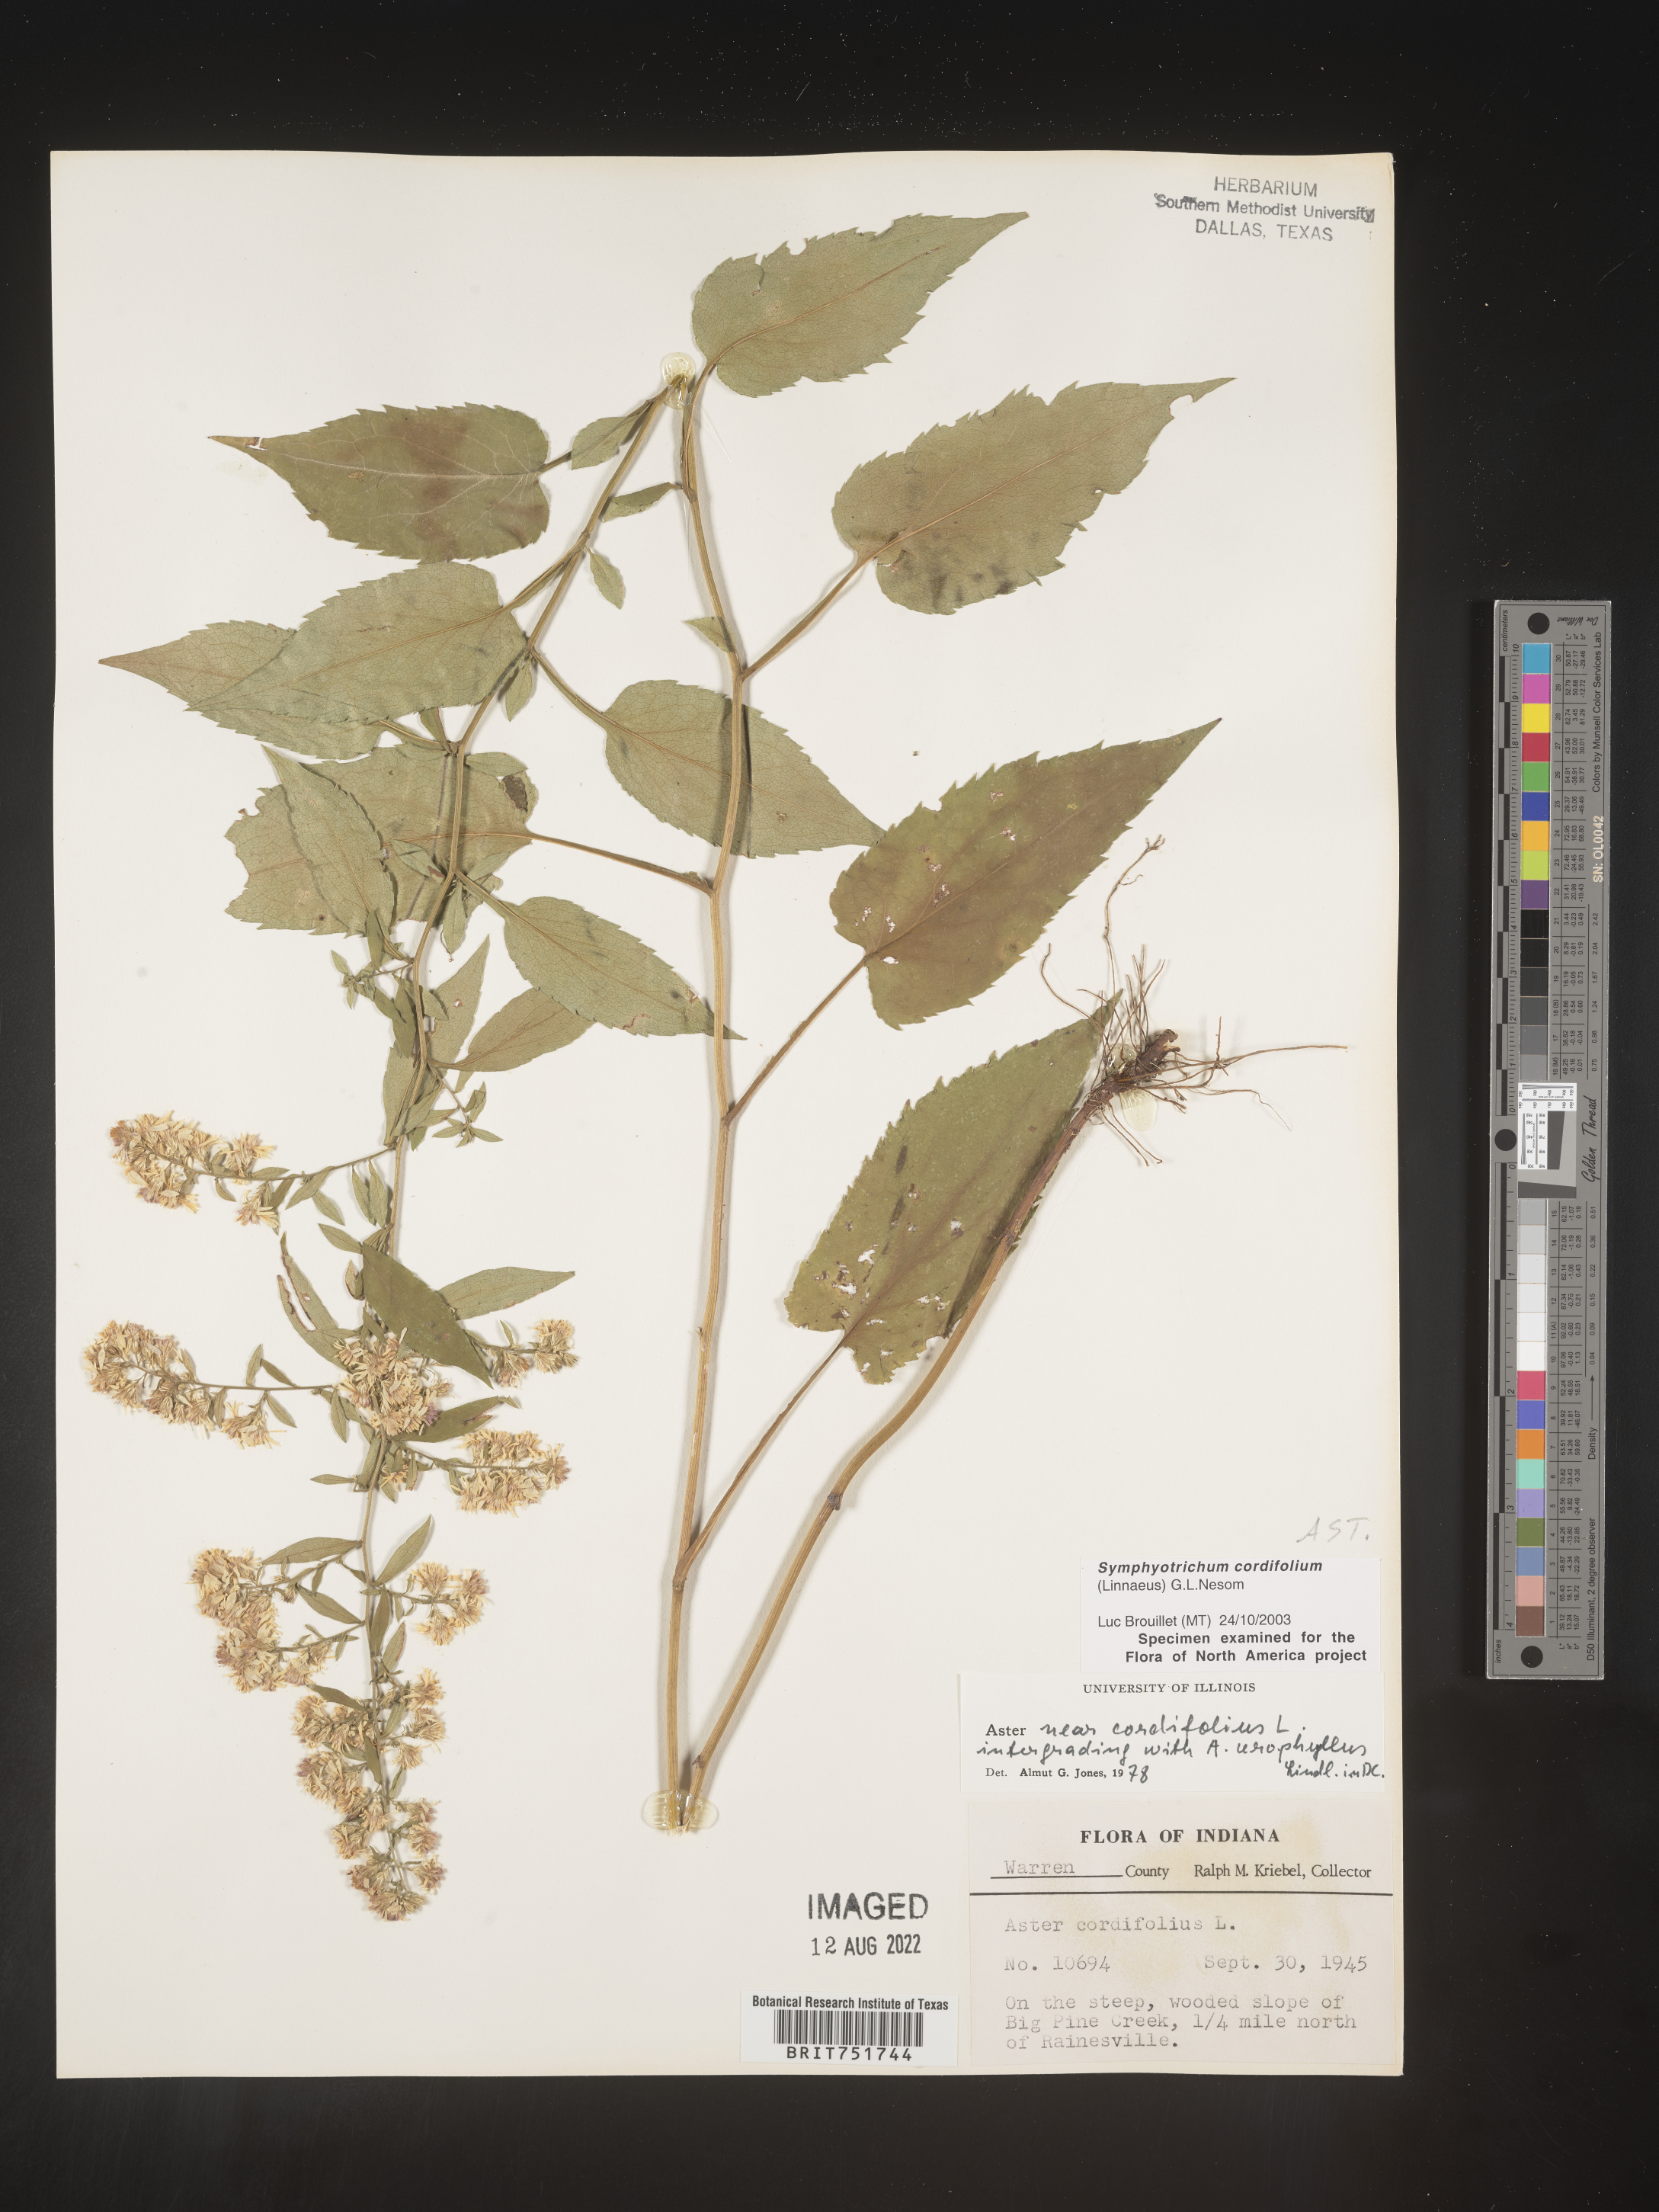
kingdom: Plantae
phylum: Tracheophyta
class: Magnoliopsida
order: Asterales
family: Asteraceae
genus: Symphyotrichum
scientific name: Symphyotrichum cordifolium
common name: Beeweed
